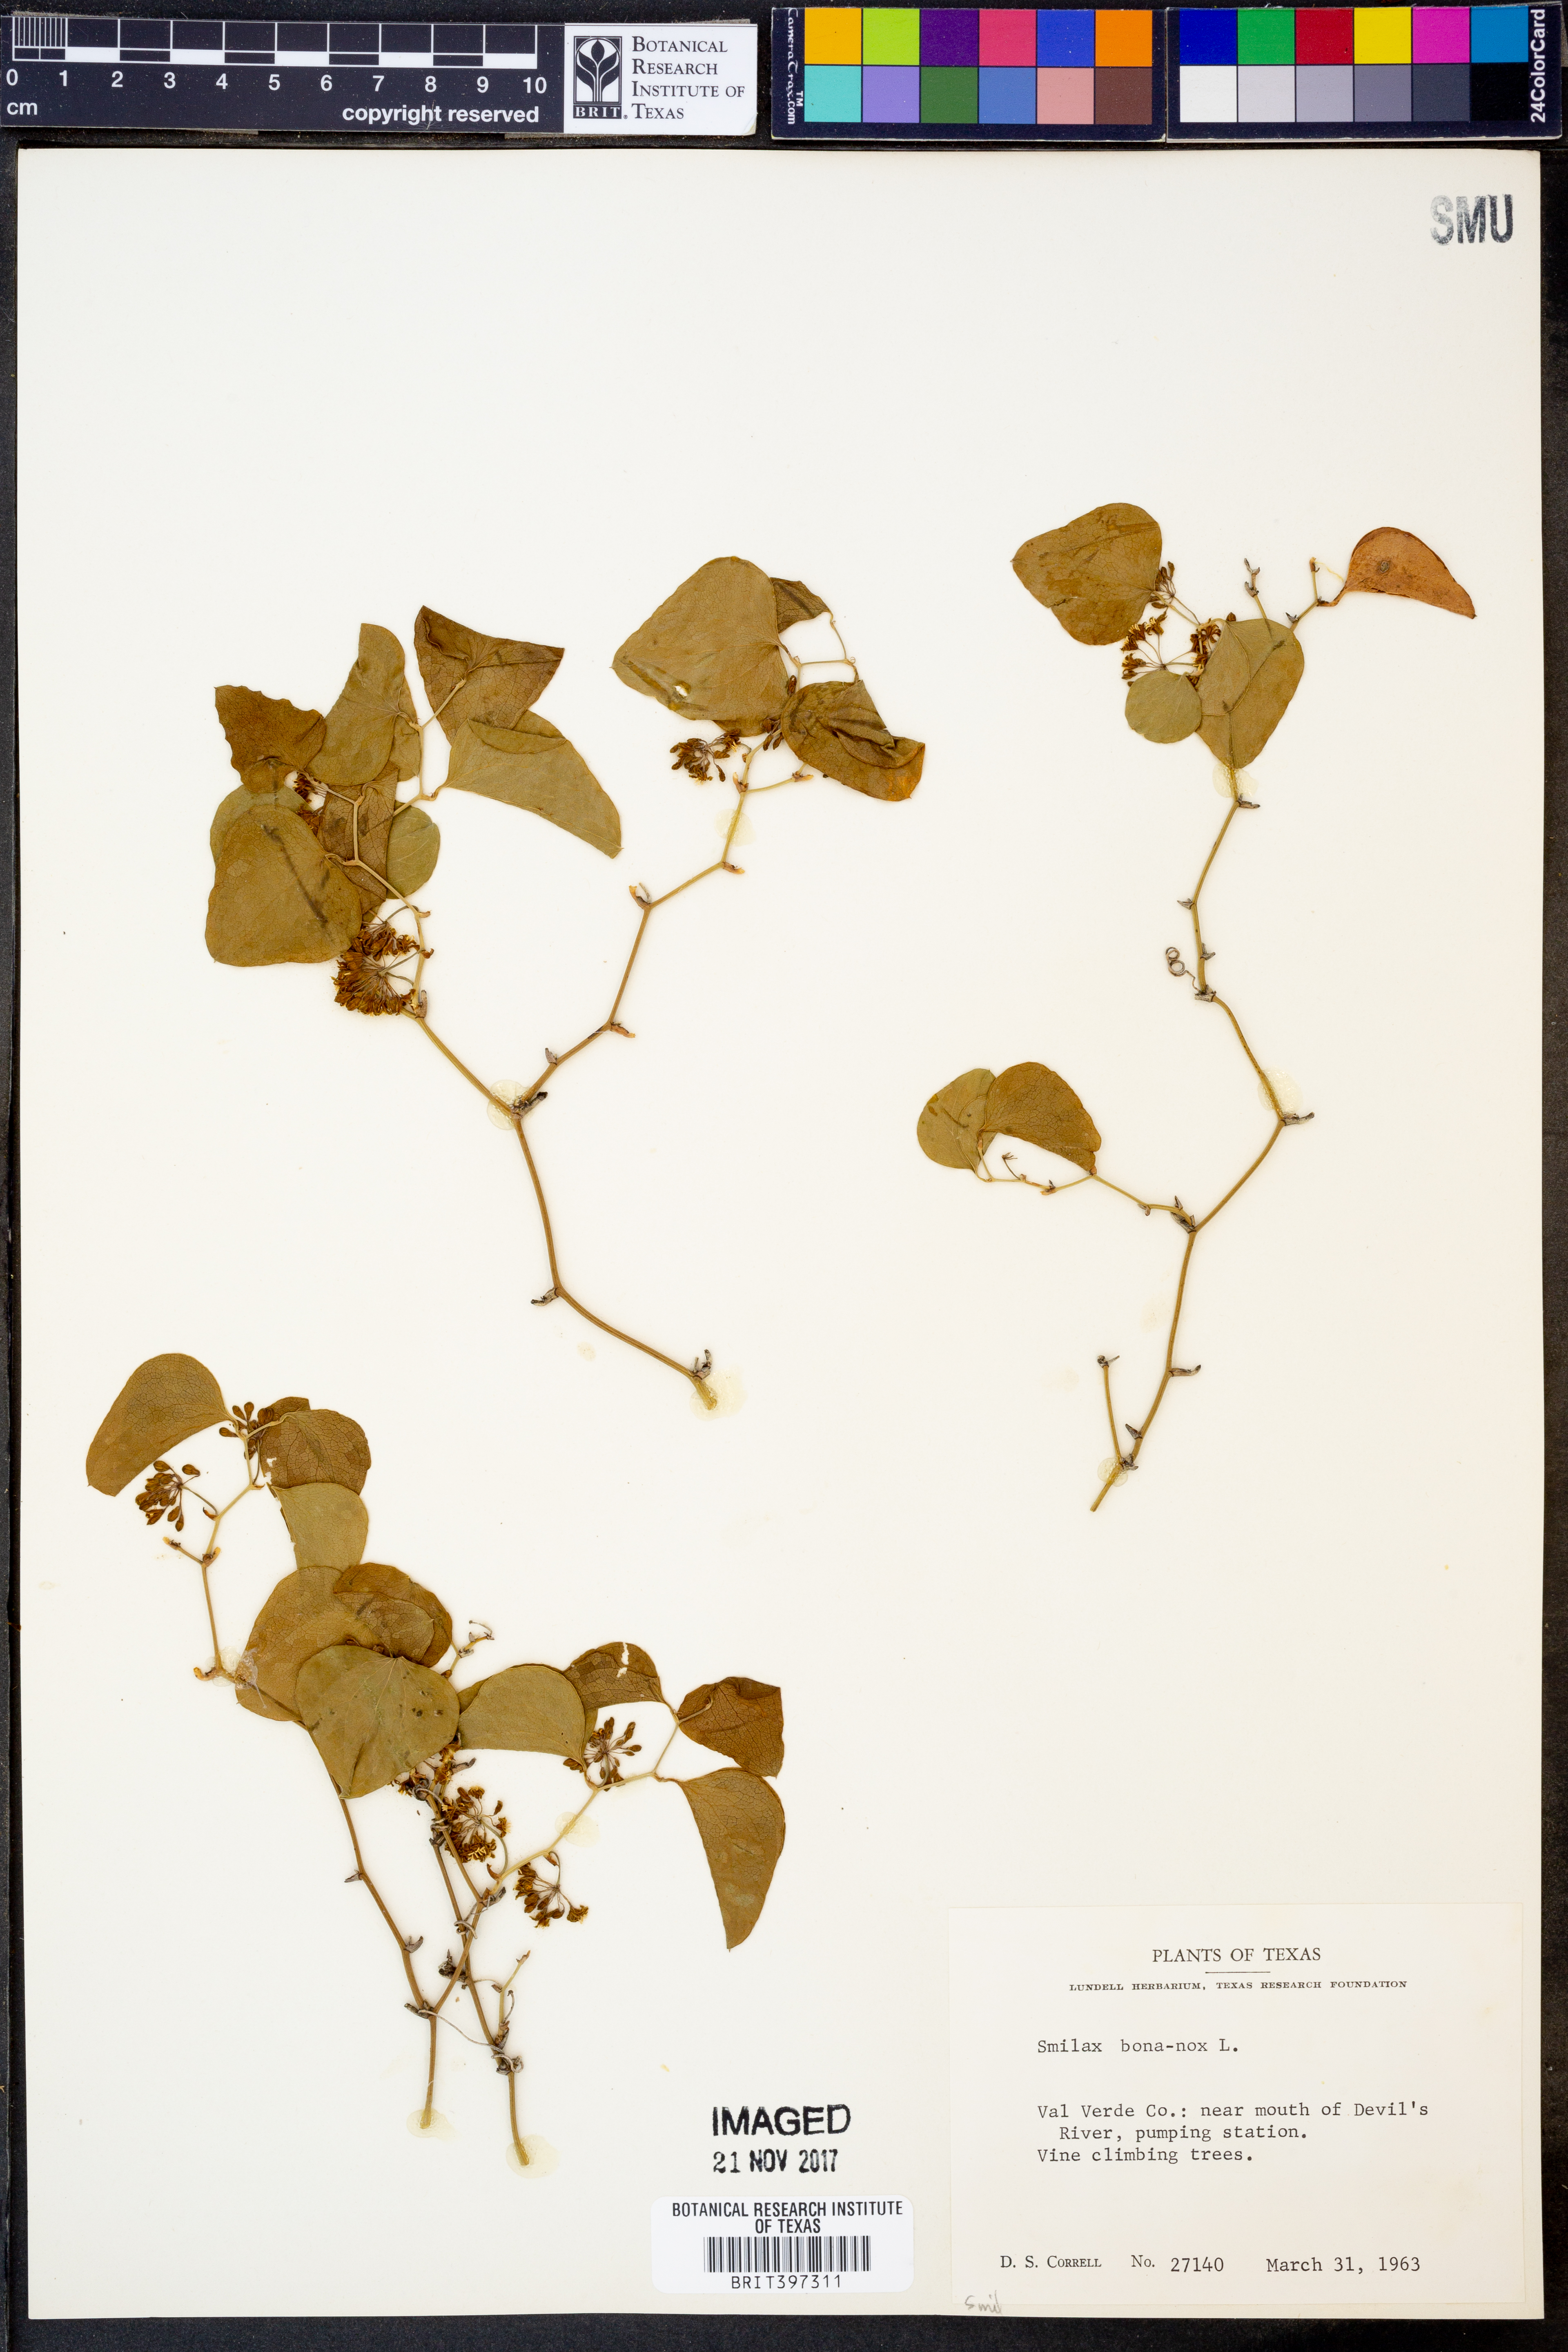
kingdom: Plantae
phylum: Tracheophyta
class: Liliopsida
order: Liliales
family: Smilacaceae
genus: Smilax
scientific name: Smilax bona-nox
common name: Catbrier
